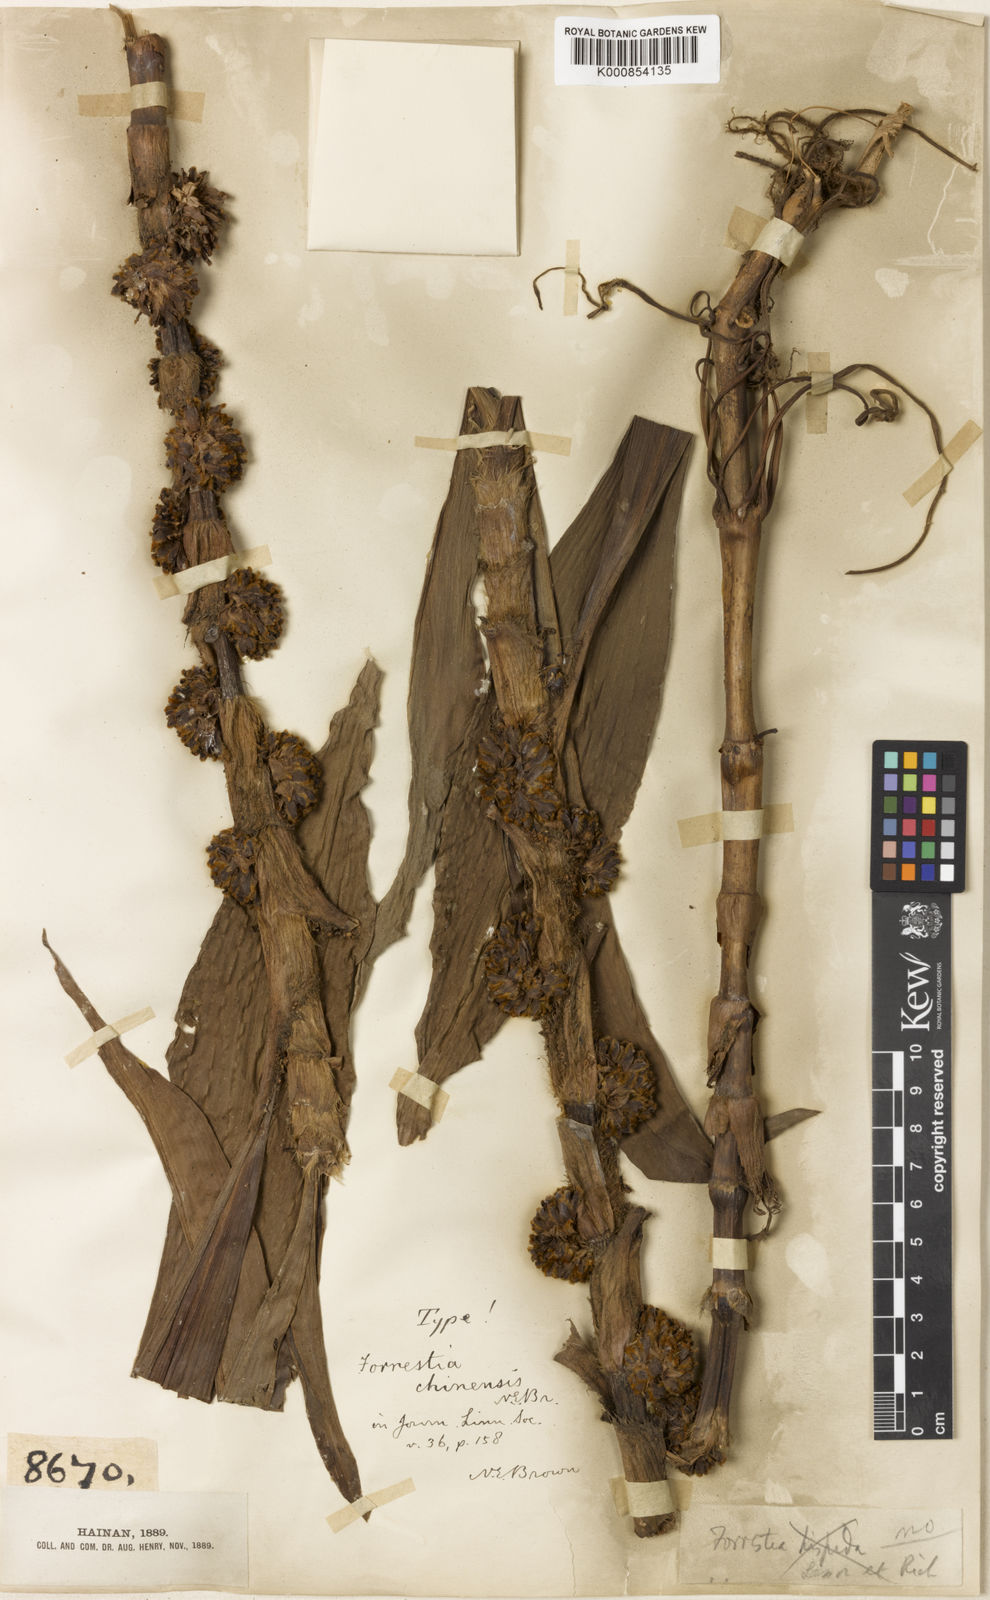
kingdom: Plantae
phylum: Tracheophyta
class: Liliopsida
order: Commelinales
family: Commelinaceae
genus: Amischotolype
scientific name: Amischotolype hispida
